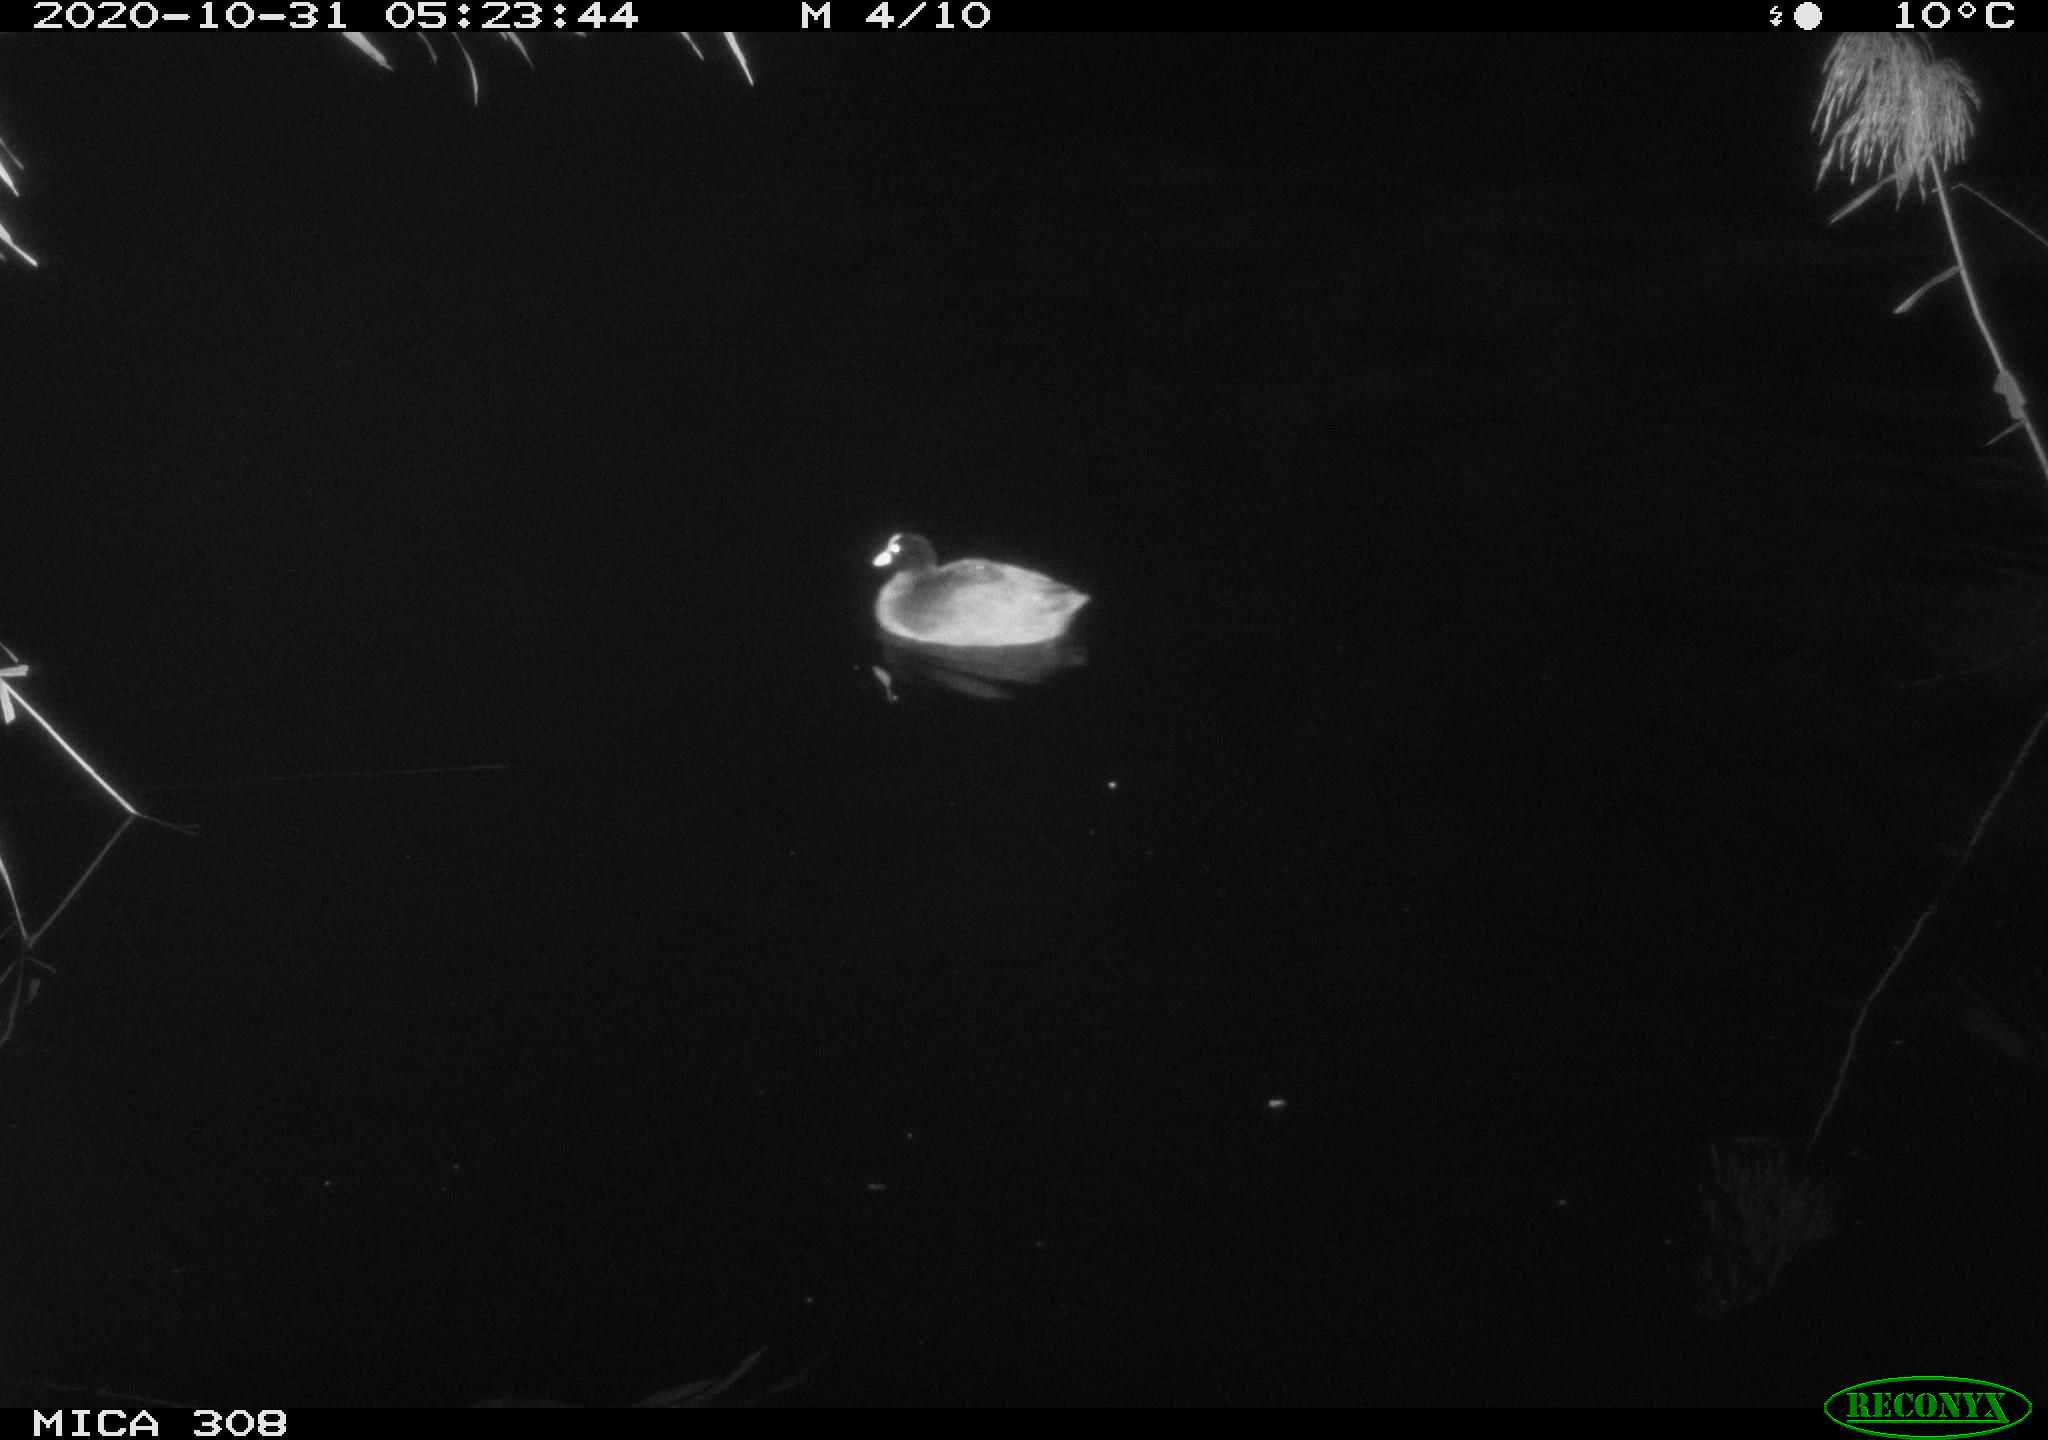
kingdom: Animalia
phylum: Chordata
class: Aves
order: Gruiformes
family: Rallidae
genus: Fulica
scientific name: Fulica atra
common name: Eurasian coot
